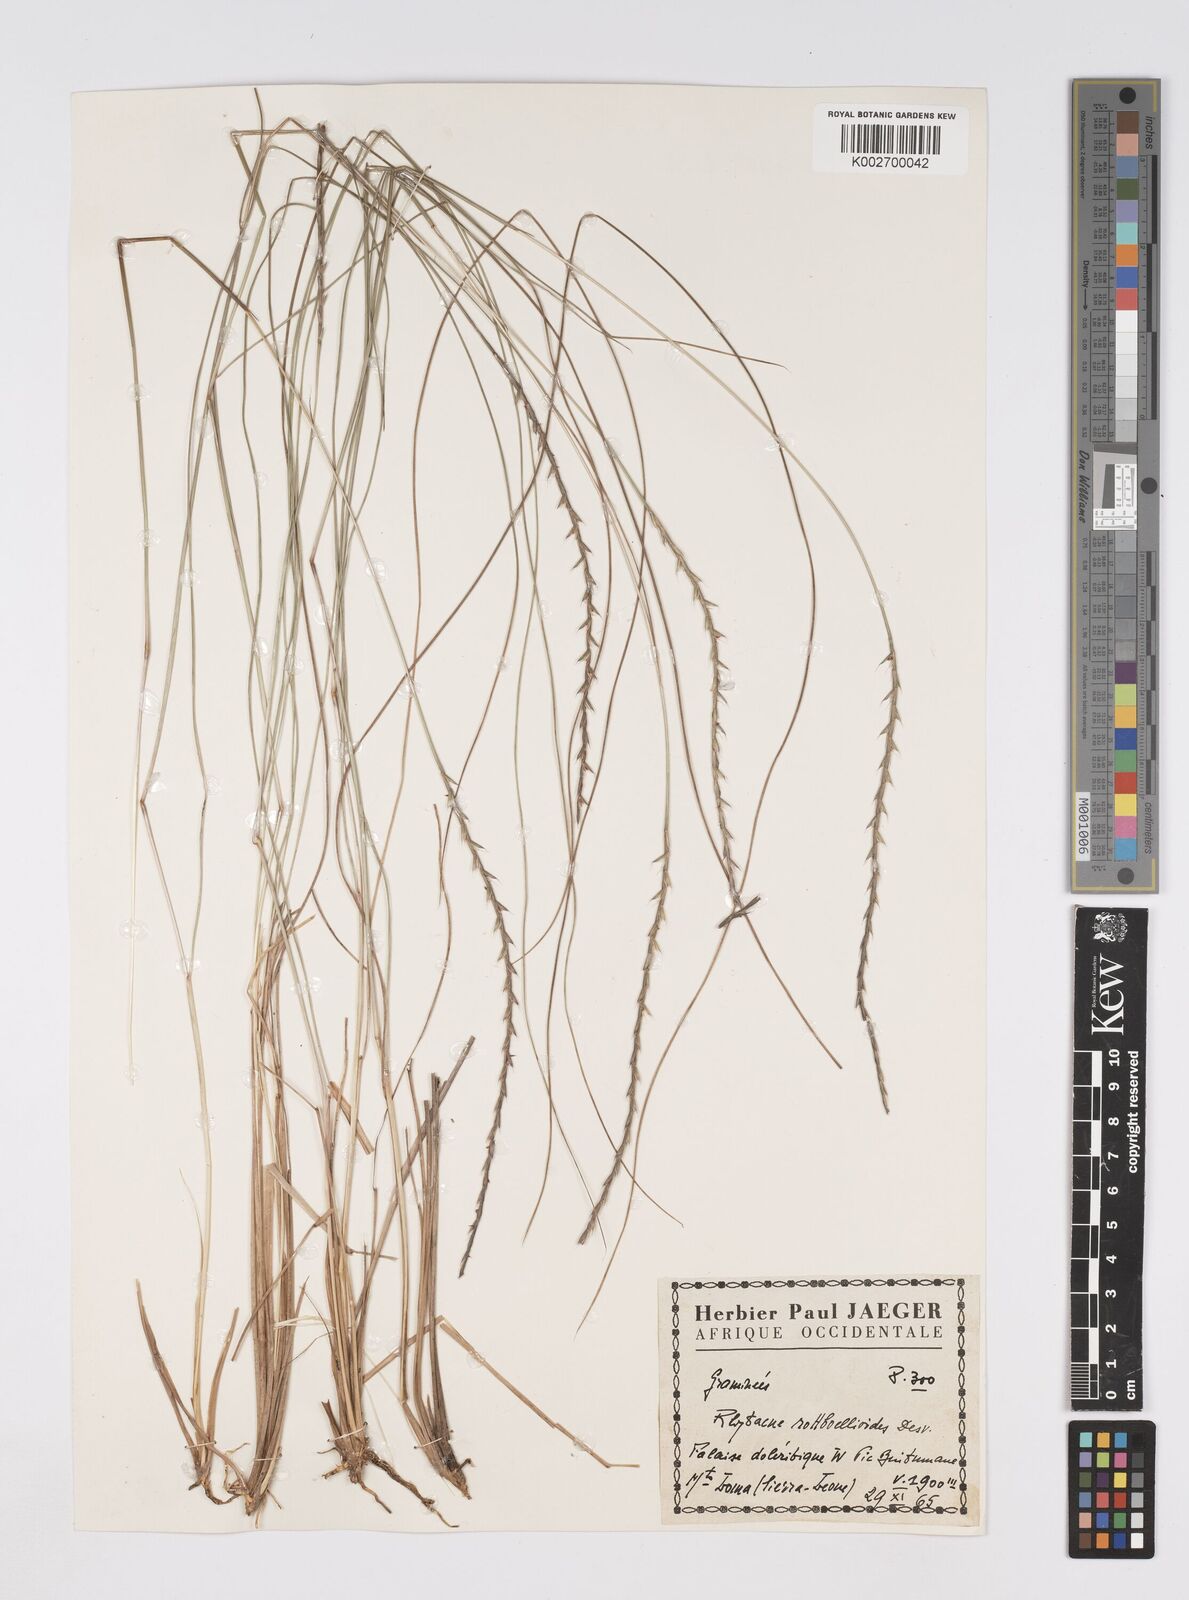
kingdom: Plantae
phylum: Tracheophyta
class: Liliopsida
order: Poales
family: Poaceae
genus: Rhytachne
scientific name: Rhytachne rottboellioides
